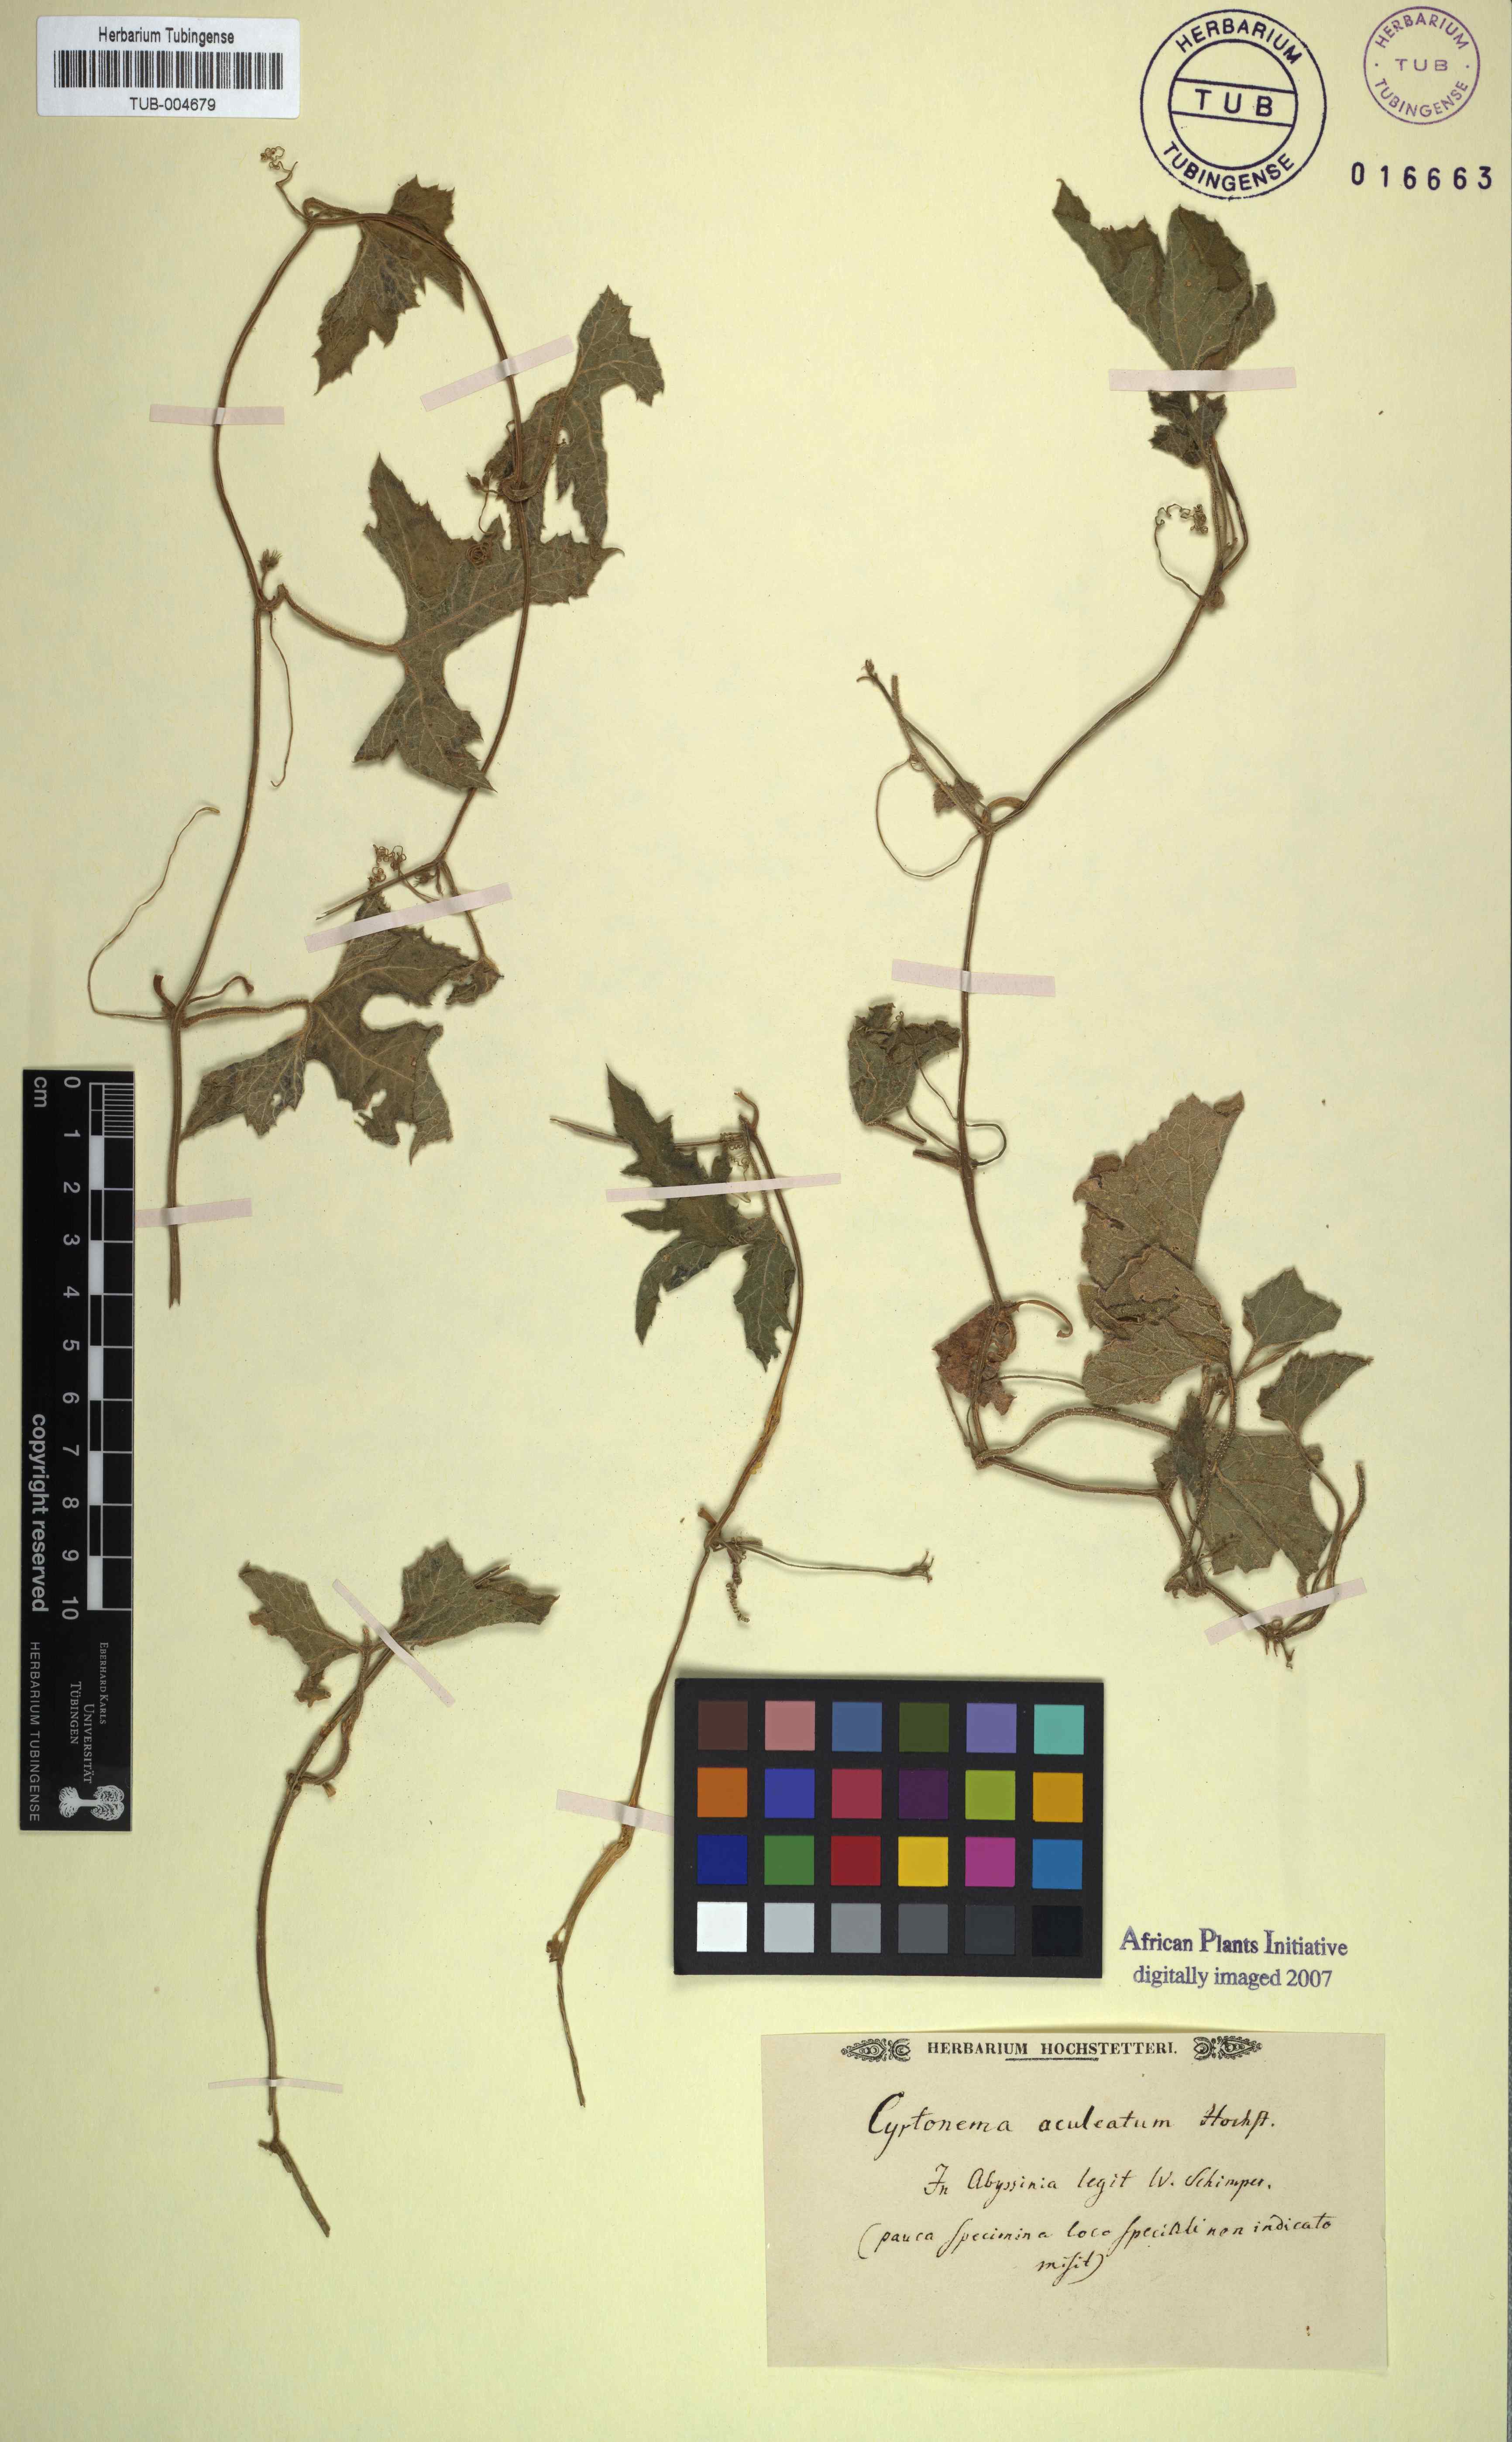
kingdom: Plantae
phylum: Tracheophyta
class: Magnoliopsida
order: Cucurbitales
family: Cucurbitaceae
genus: Kedrostis
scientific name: Kedrostis
